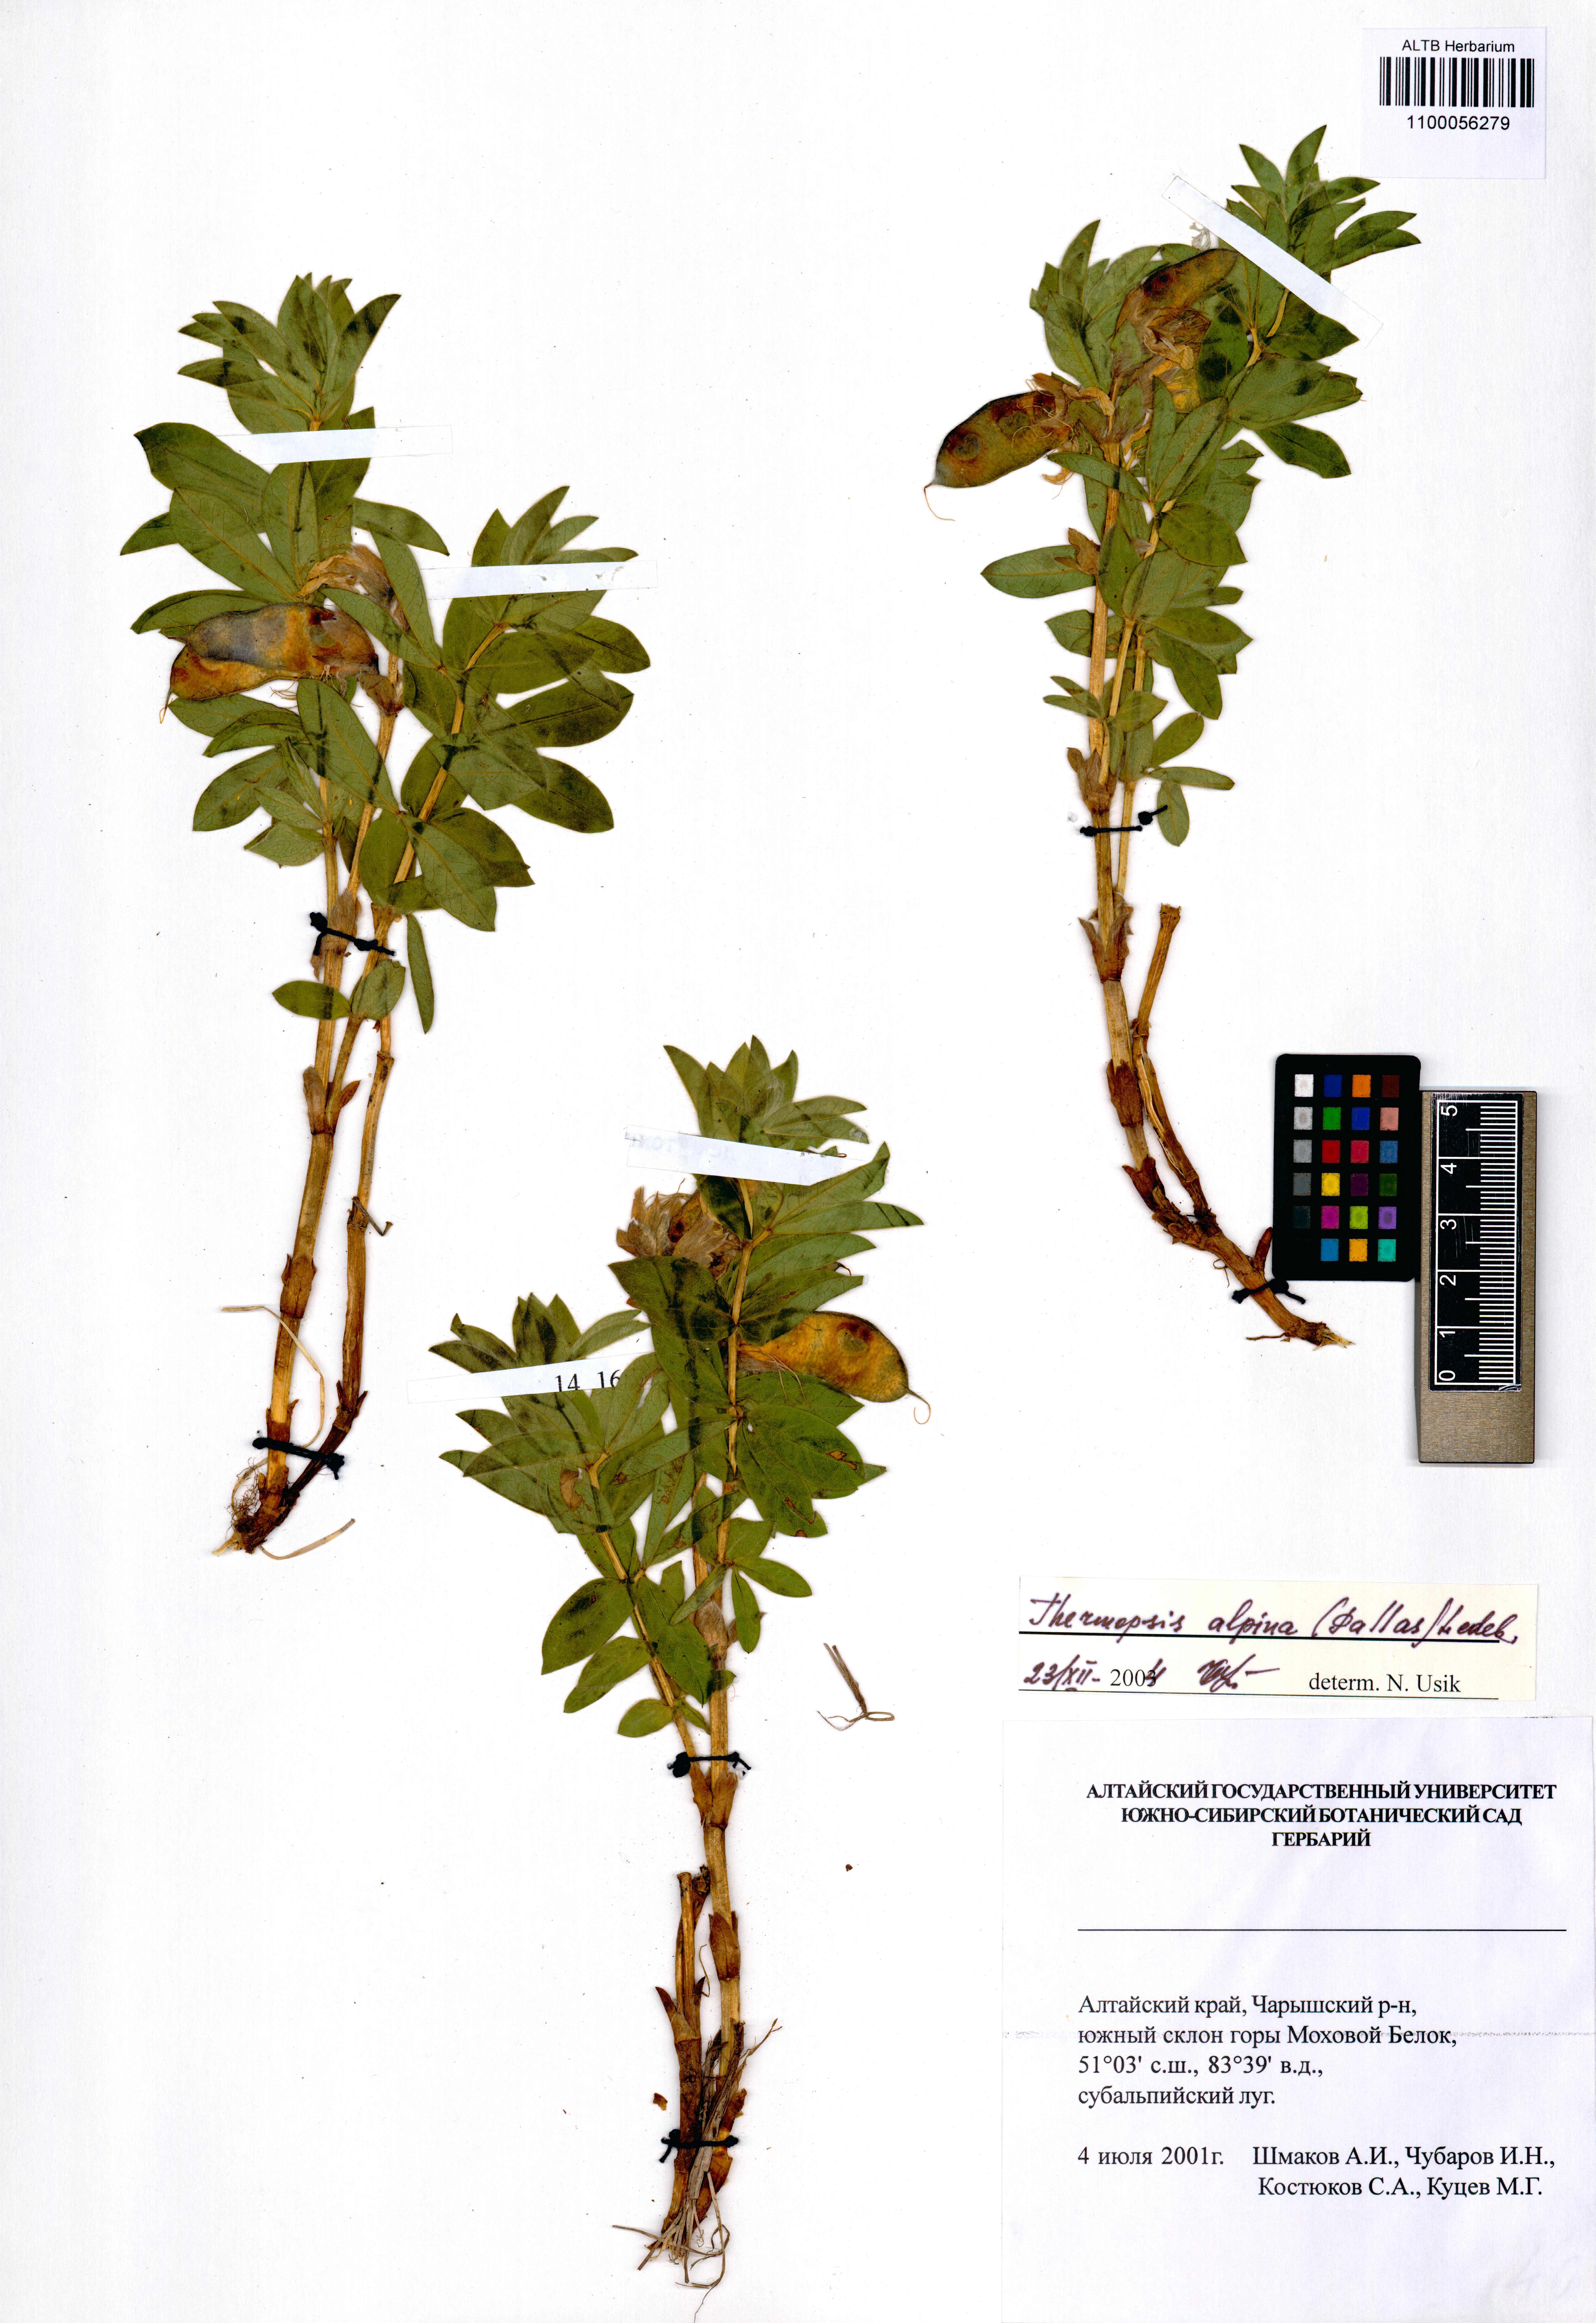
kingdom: Plantae
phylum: Tracheophyta
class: Magnoliopsida
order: Fabales
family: Fabaceae
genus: Thermopsis
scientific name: Thermopsis alpina
